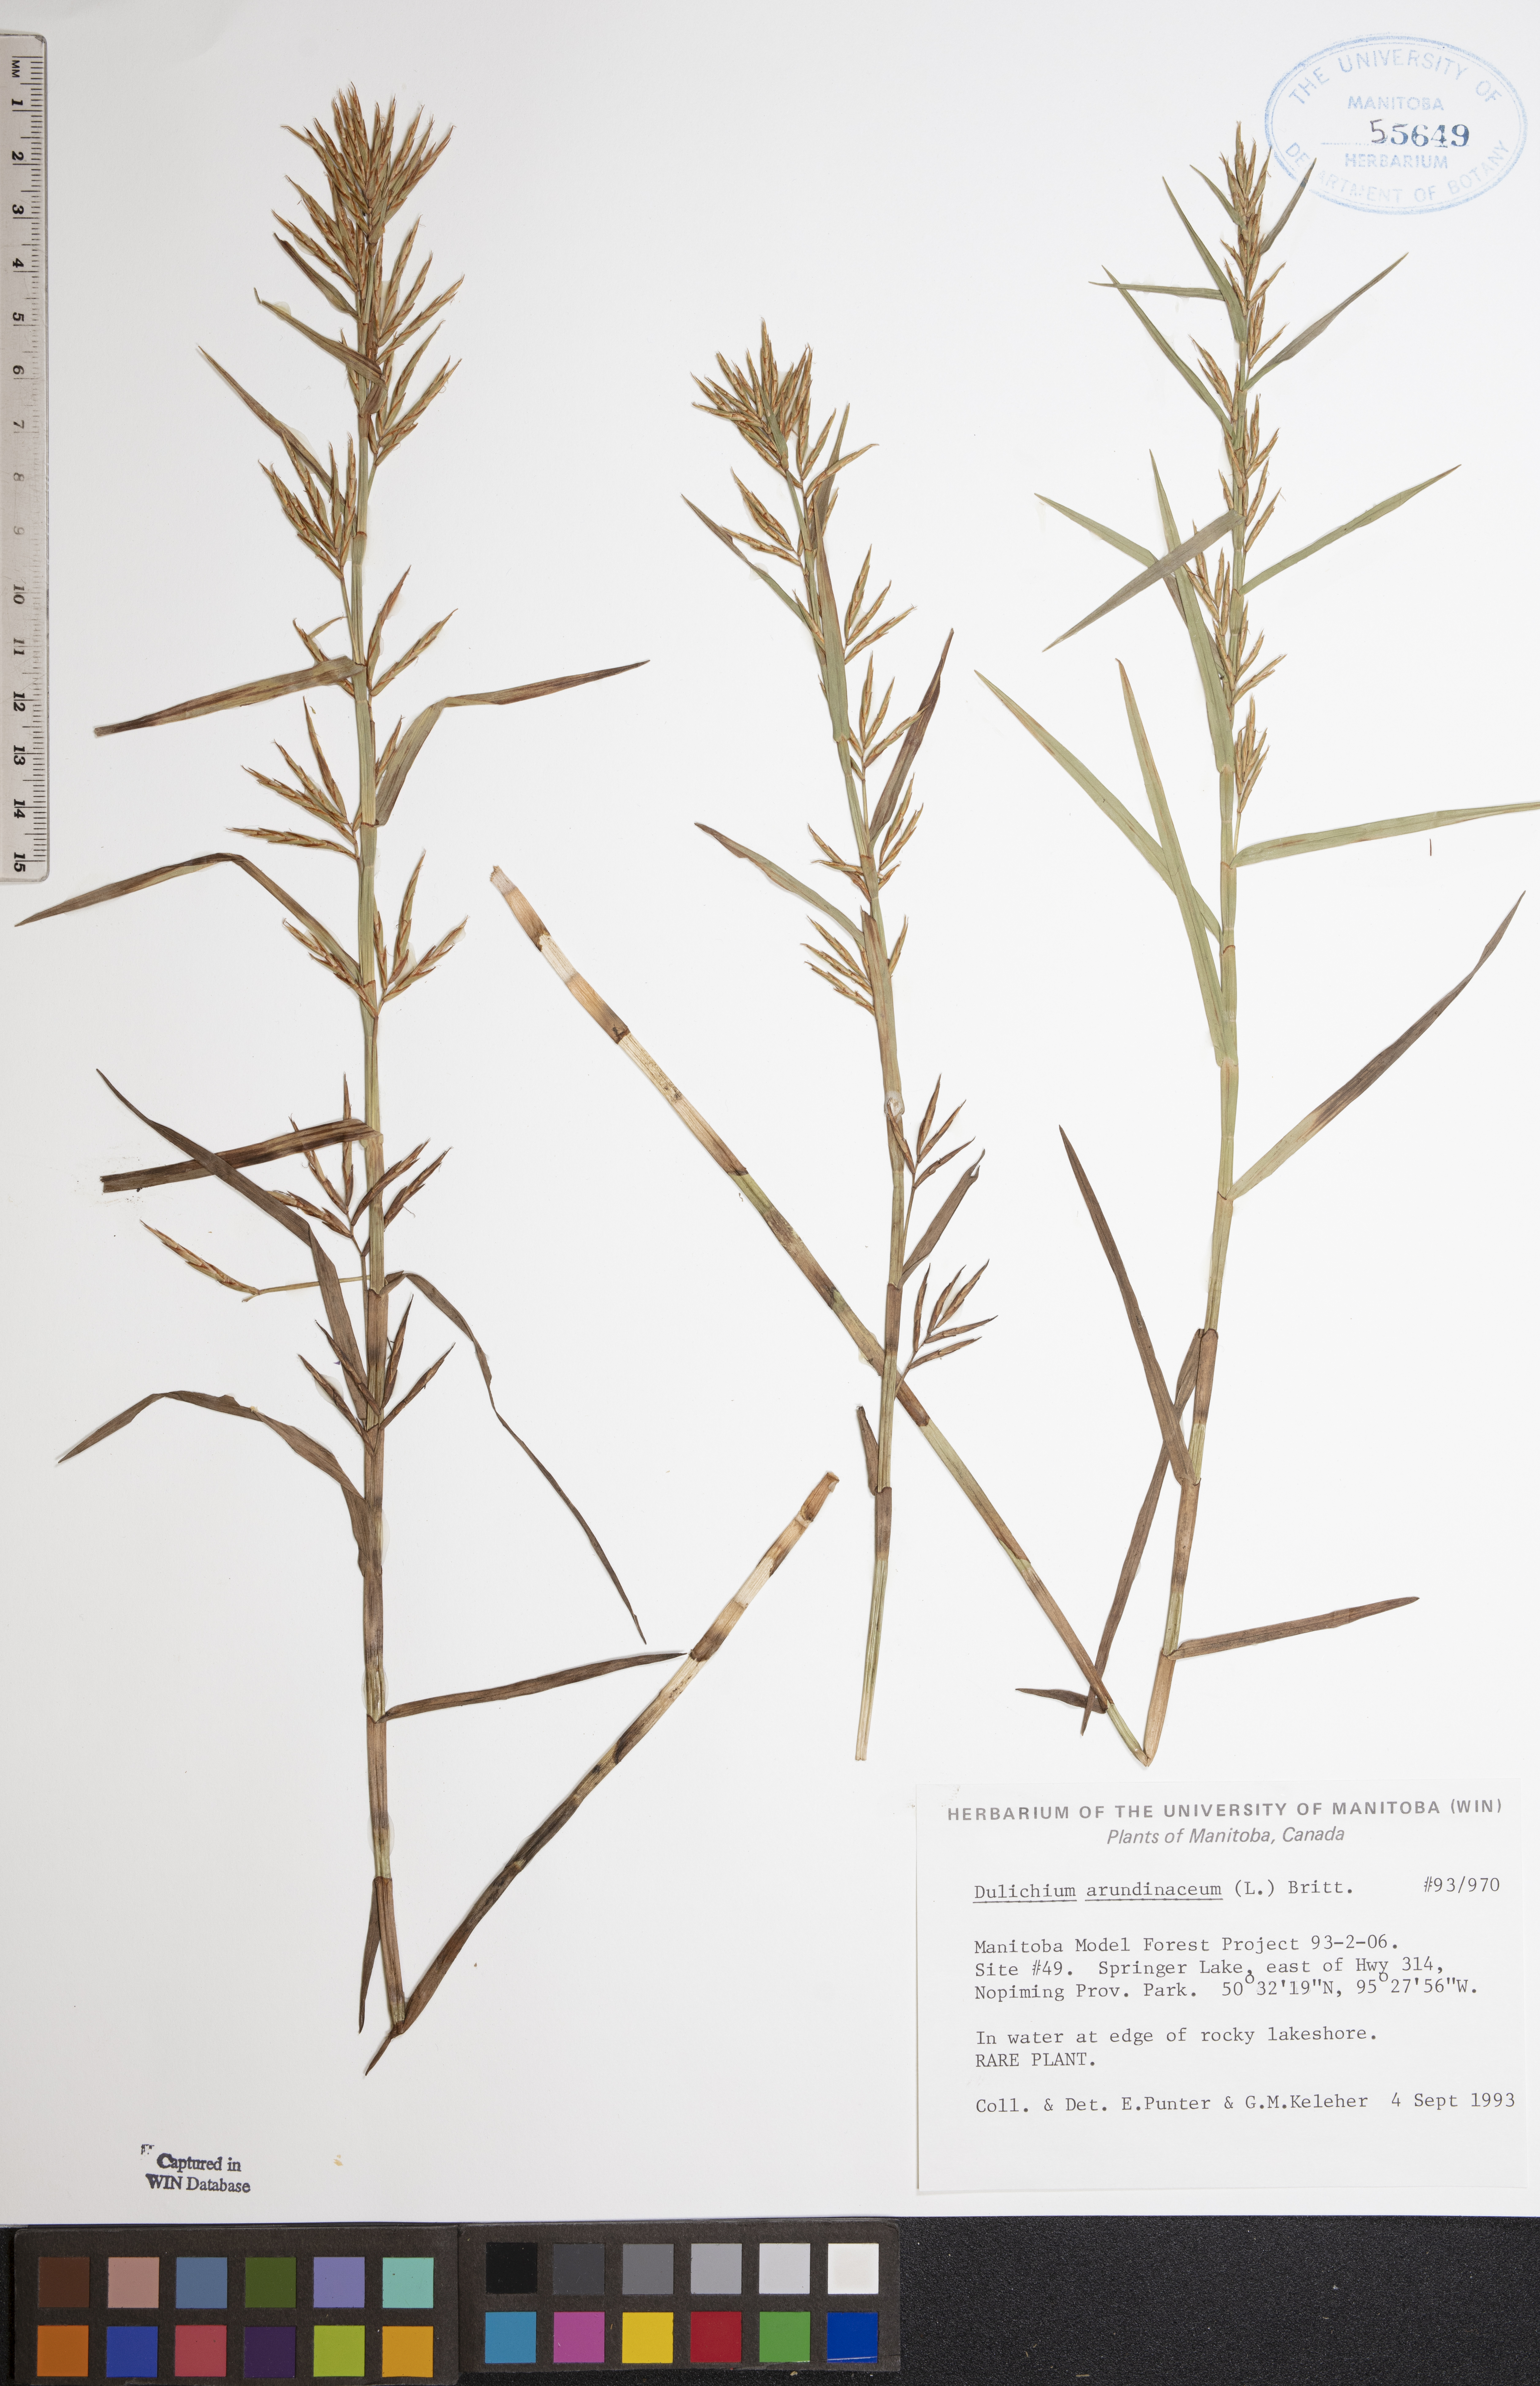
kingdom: Plantae
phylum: Tracheophyta
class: Liliopsida
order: Poales
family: Cyperaceae
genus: Dulichium
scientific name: Dulichium arundinaceum
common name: Three-way sedge
